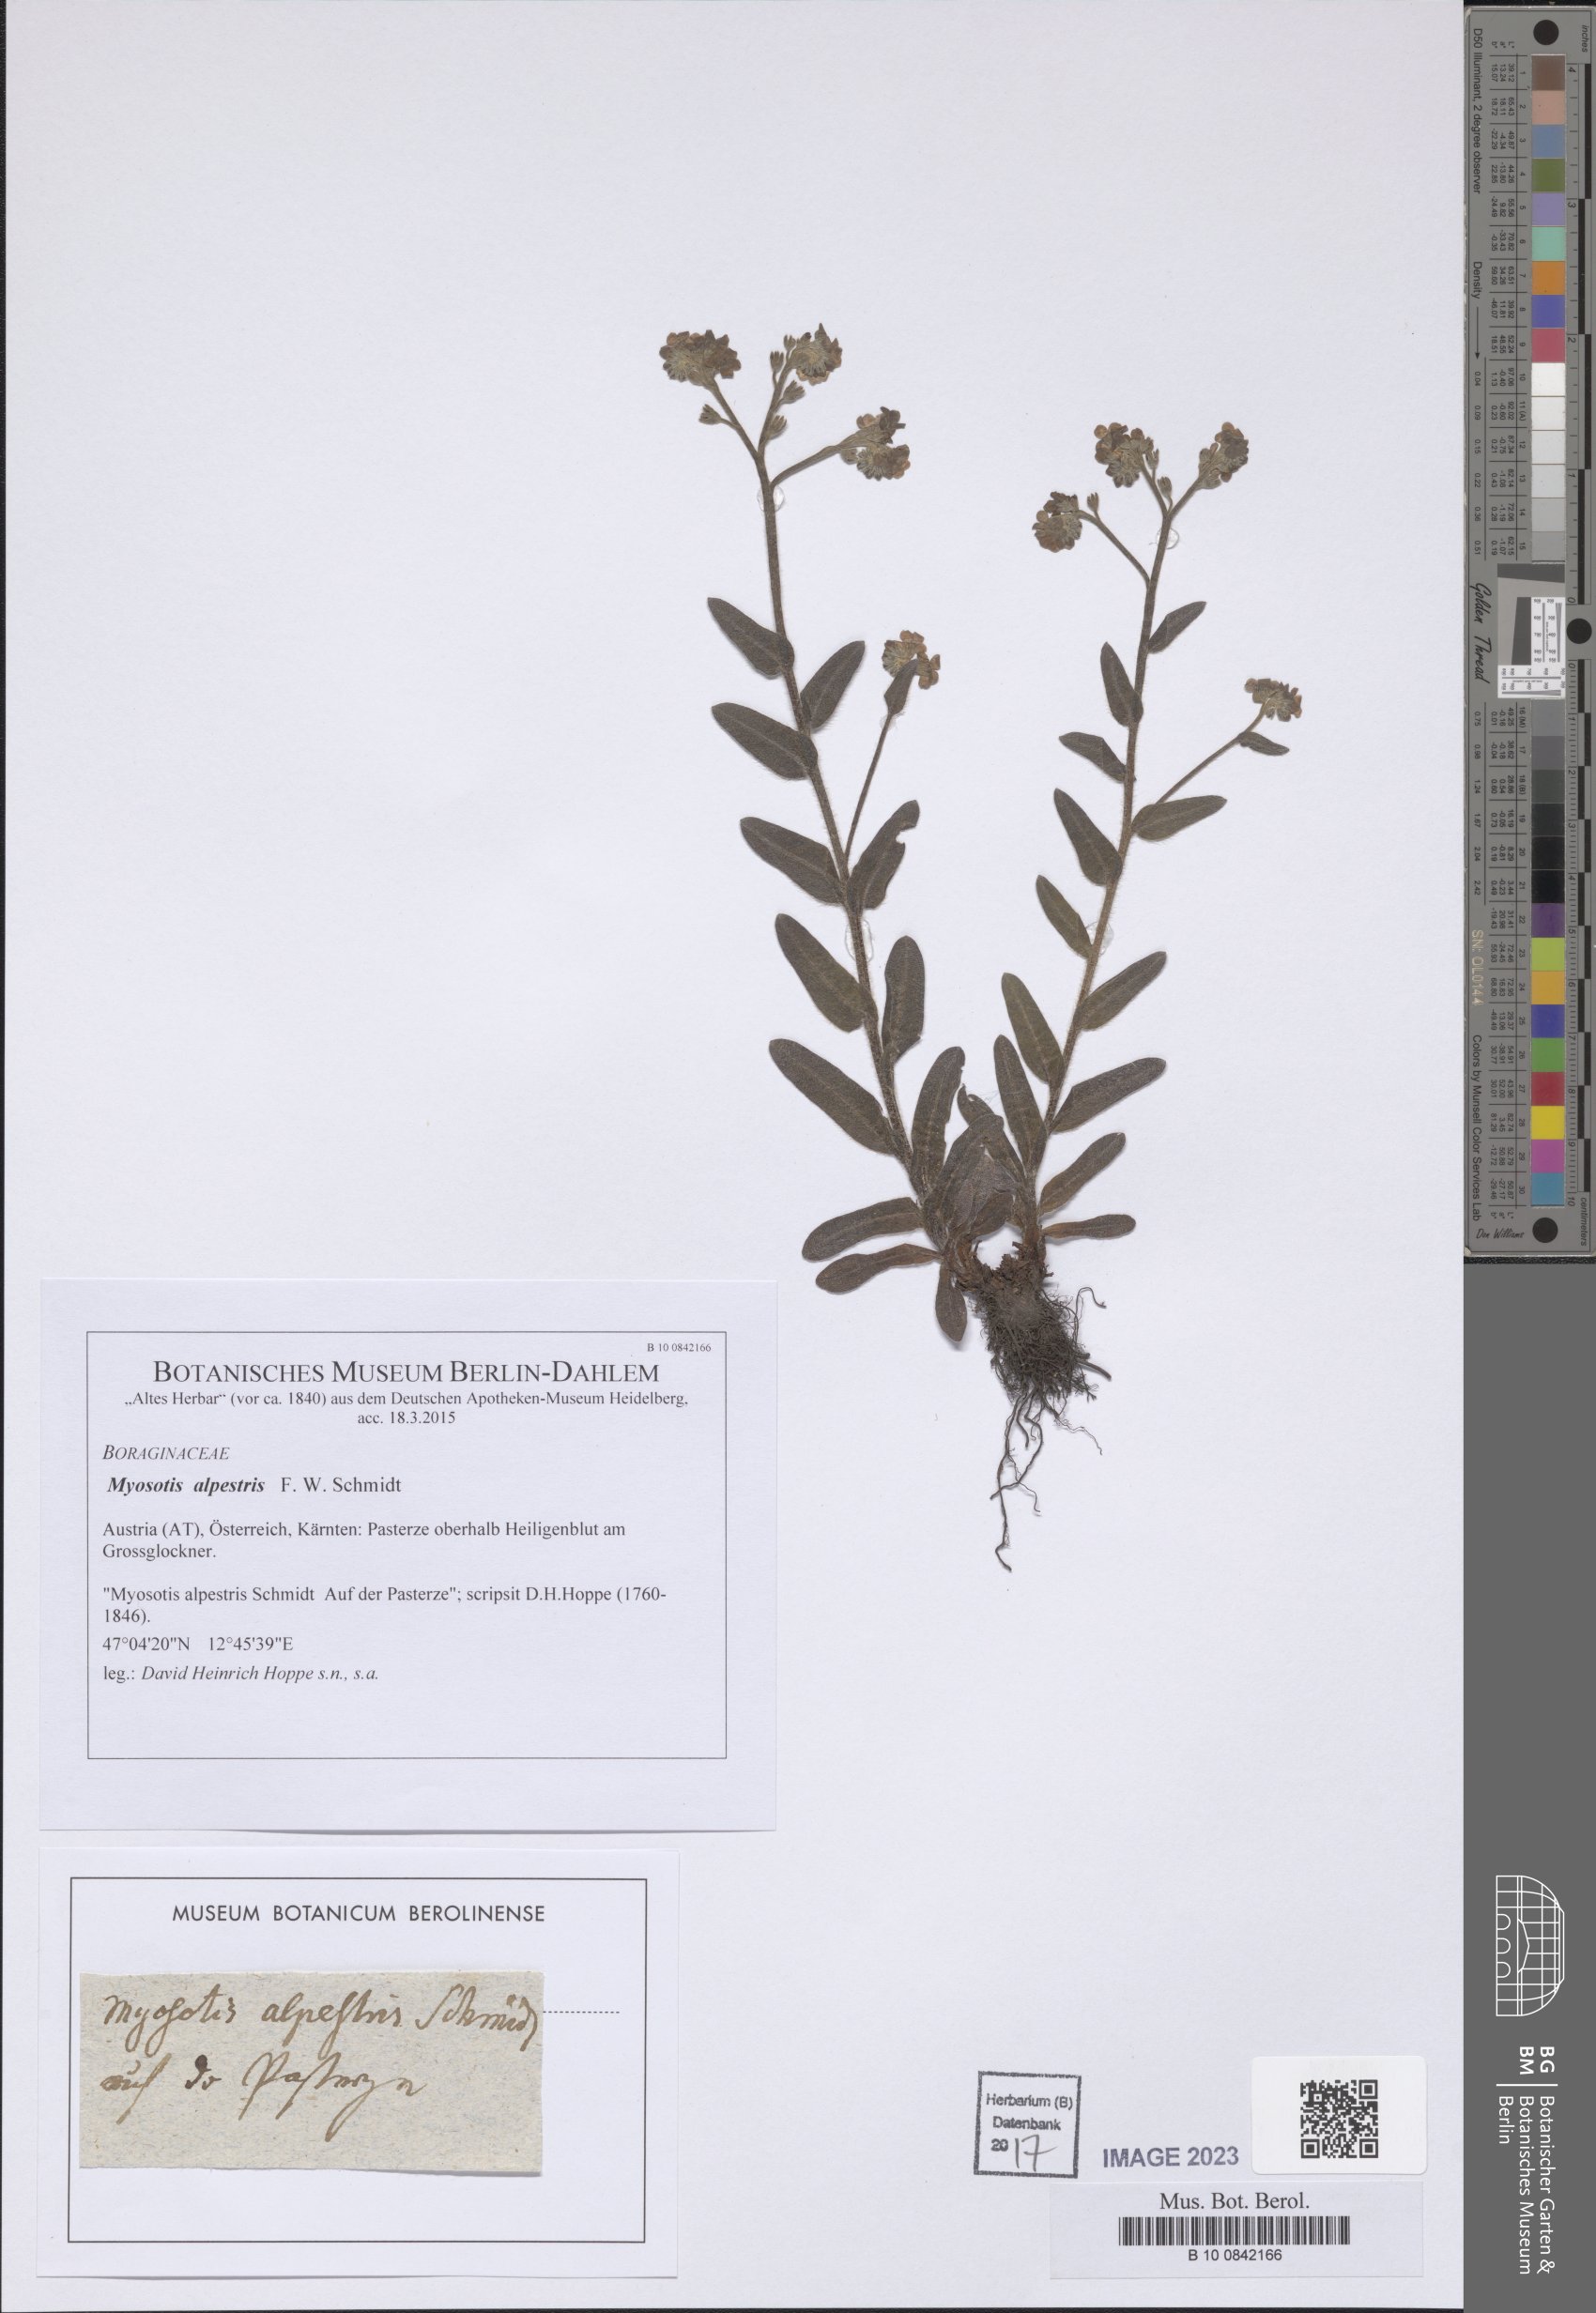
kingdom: Plantae
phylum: Tracheophyta
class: Magnoliopsida
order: Boraginales
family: Boraginaceae
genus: Myosotis
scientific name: Myosotis alpestris
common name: Alpine forget-me-not
